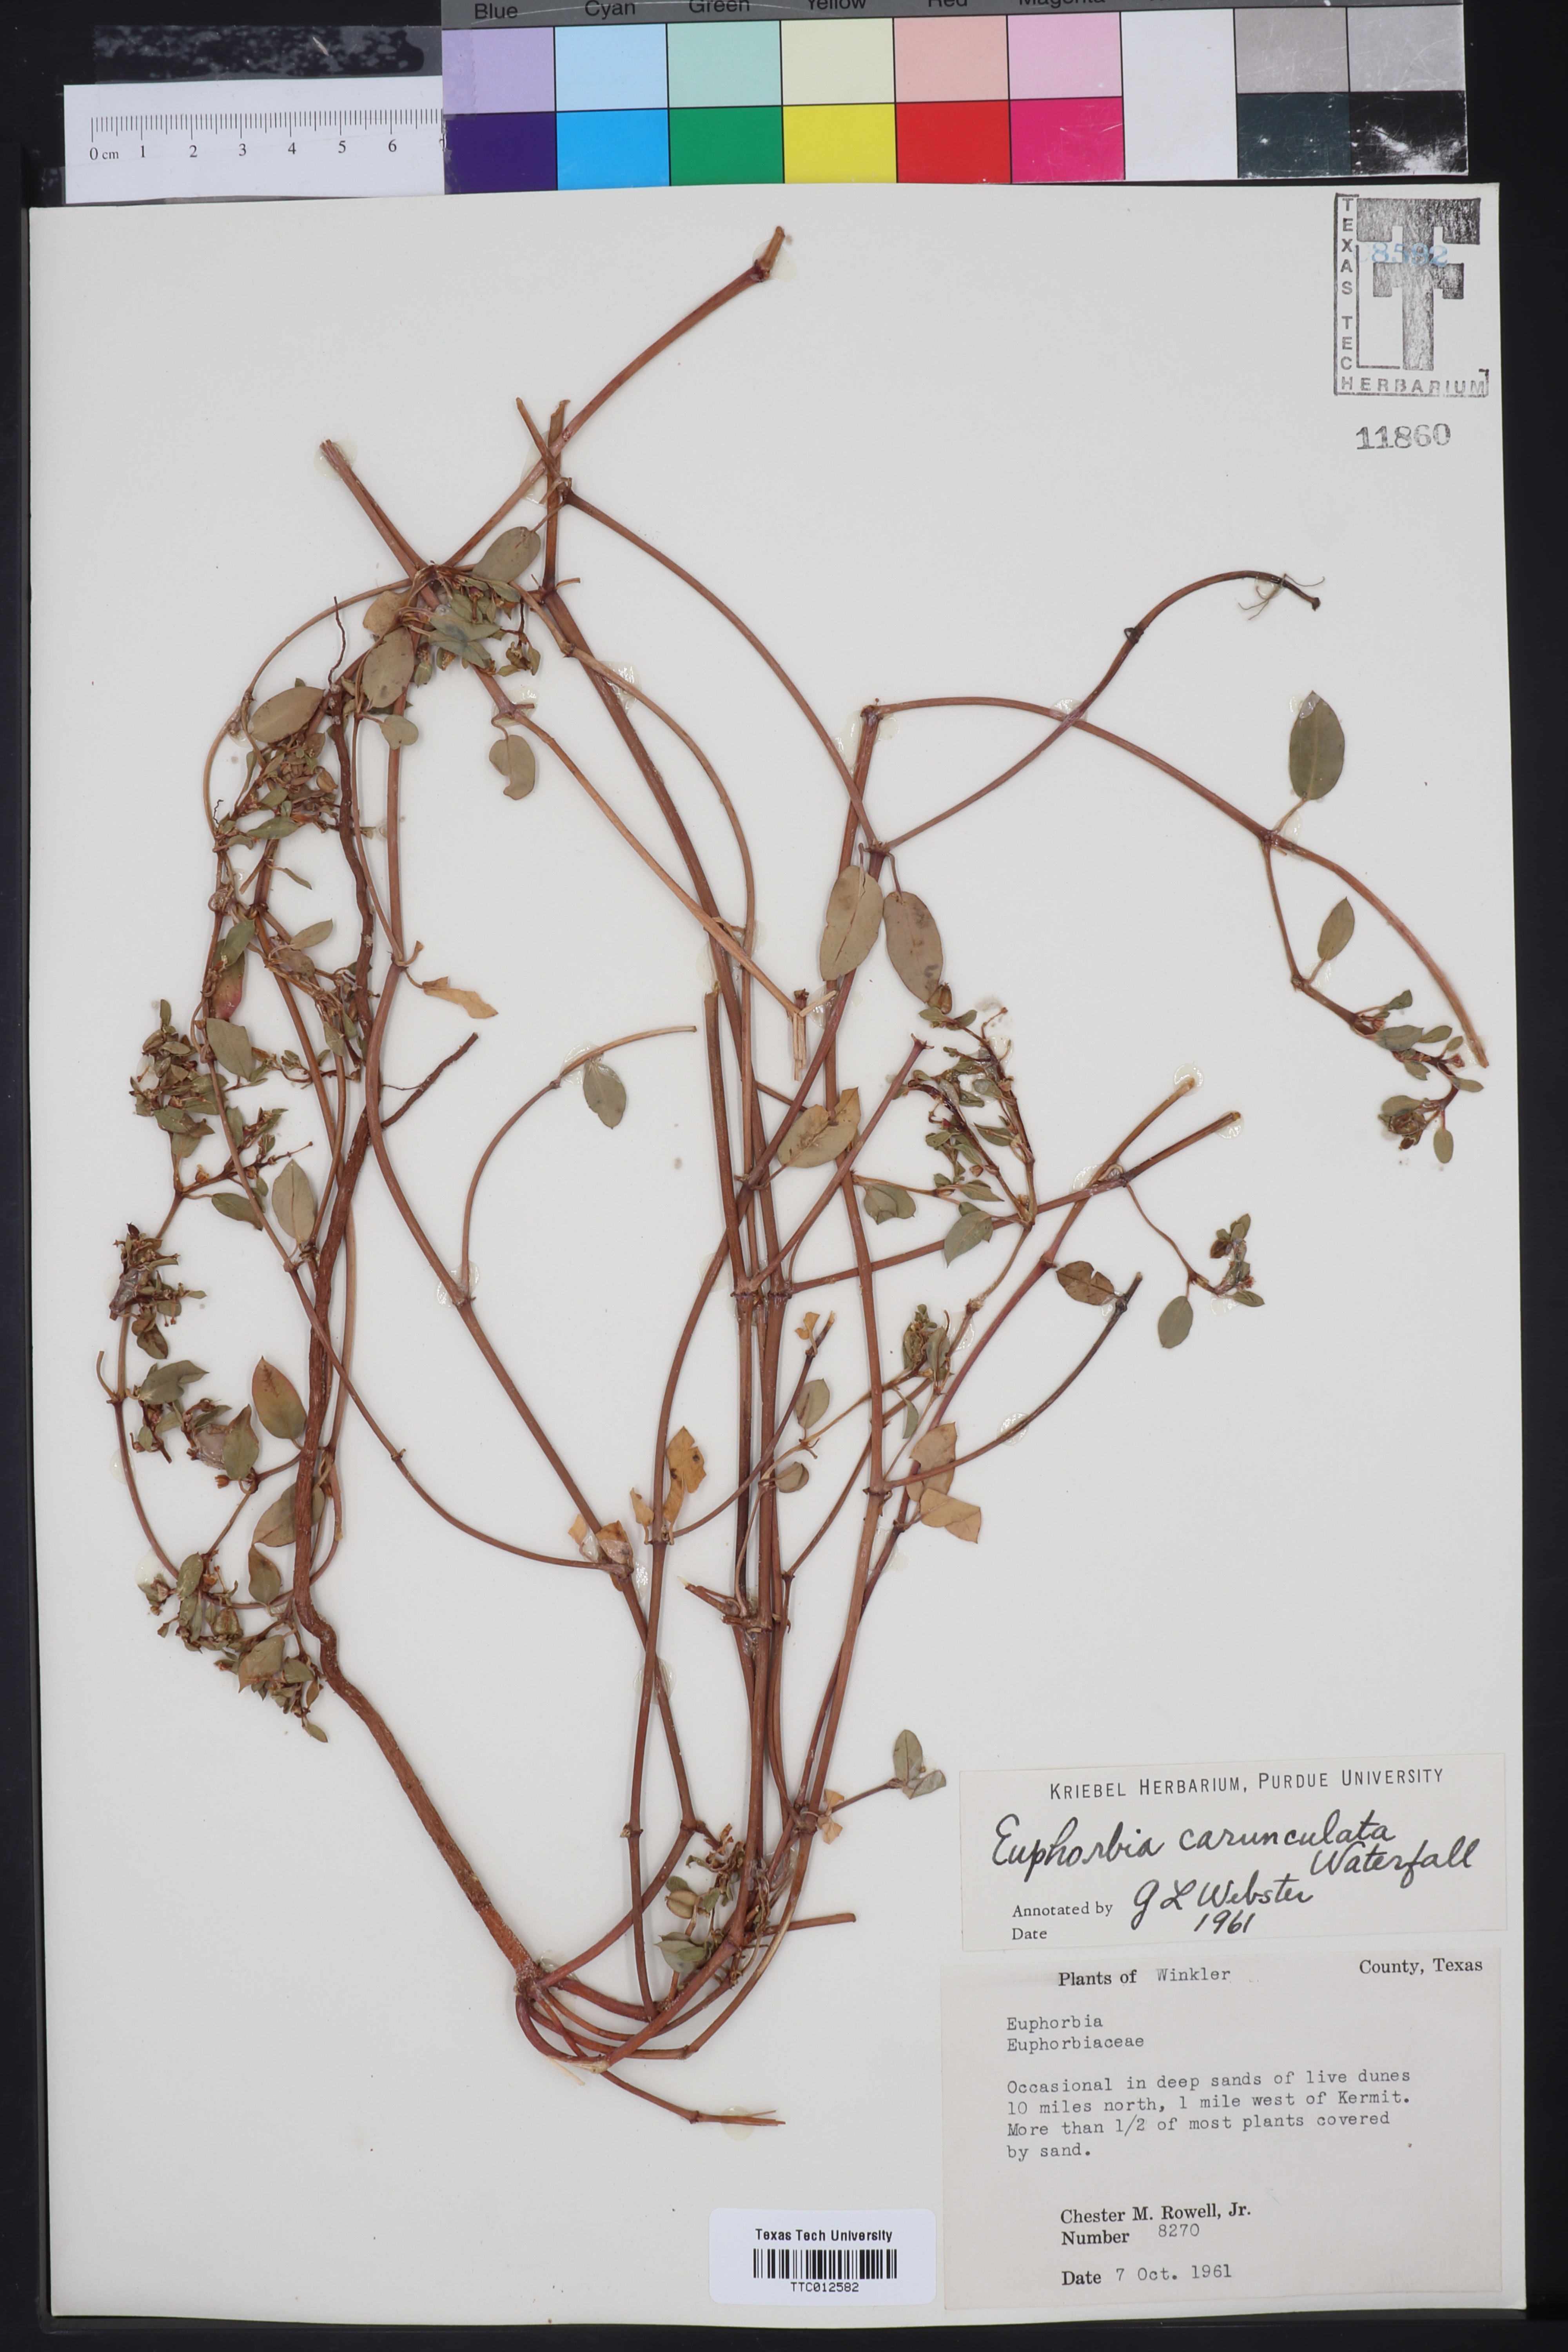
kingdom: Plantae
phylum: Tracheophyta
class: Magnoliopsida
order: Malpighiales
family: Euphorbiaceae
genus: Euphorbia
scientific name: Euphorbia carunculata
